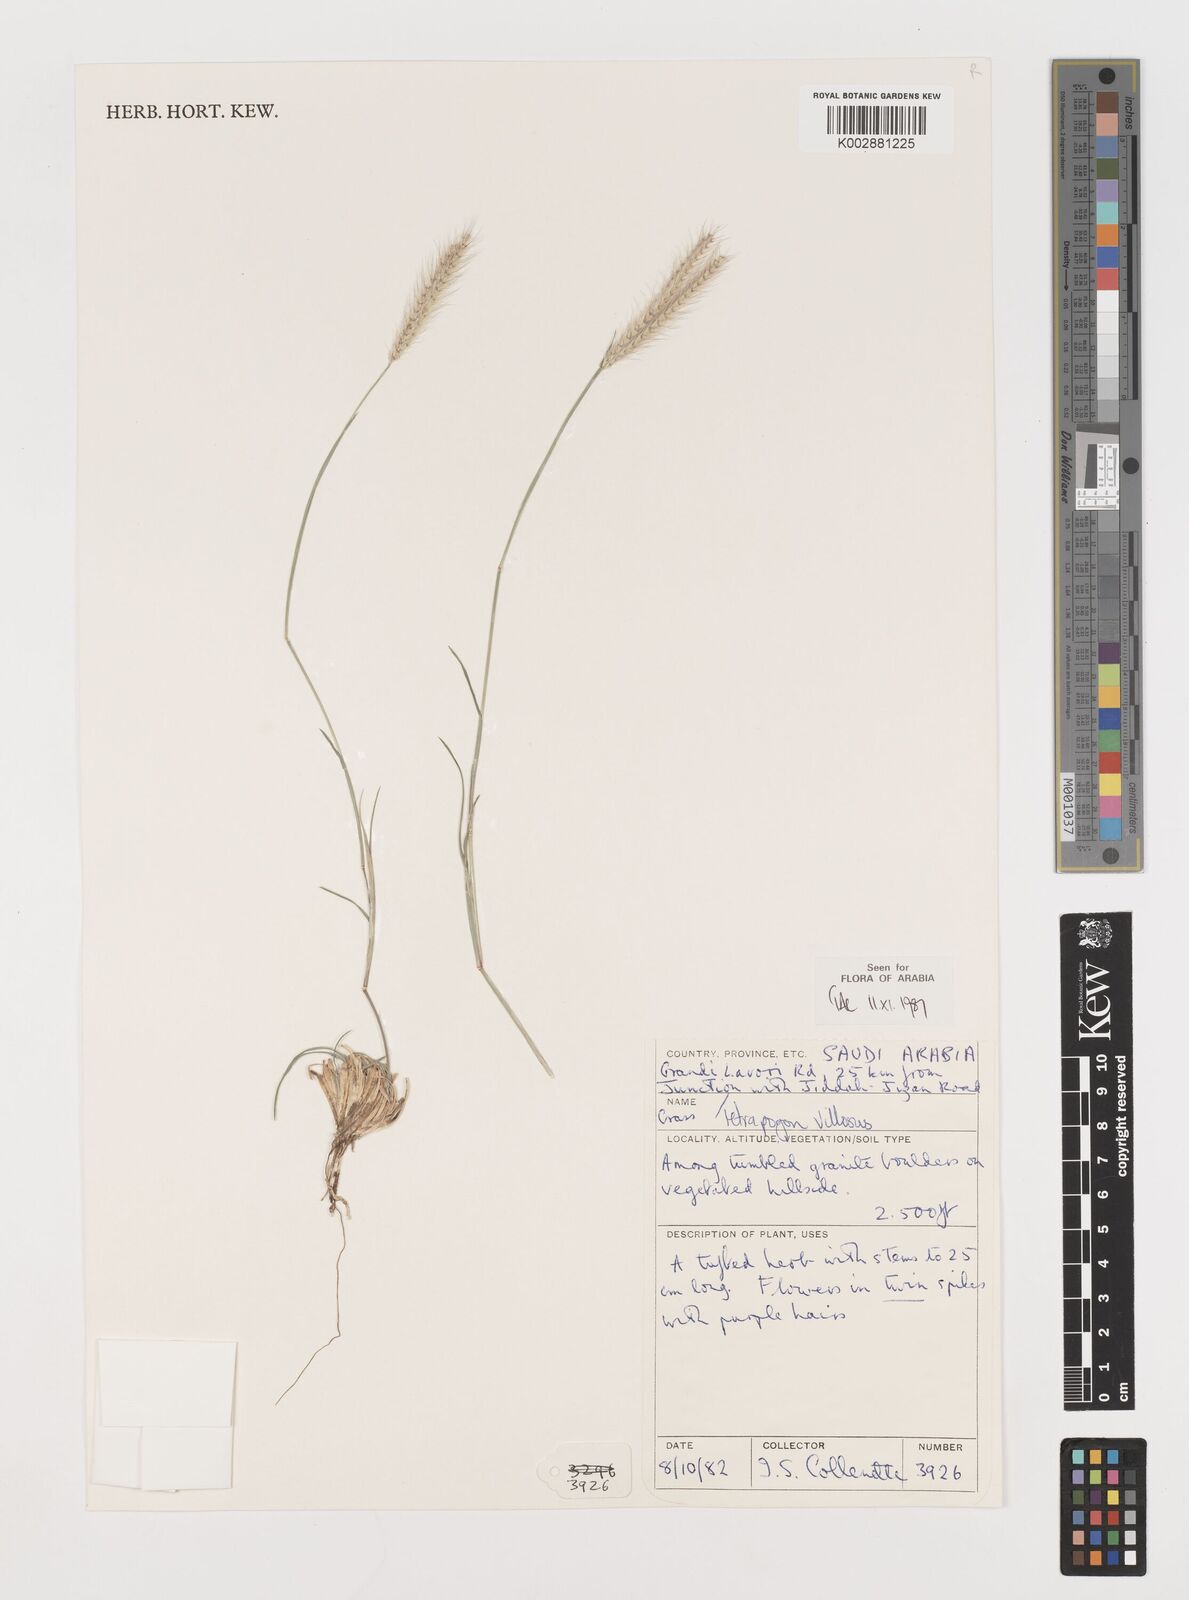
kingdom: Plantae
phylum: Tracheophyta
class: Liliopsida
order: Poales
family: Poaceae
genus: Tetrapogon
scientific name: Tetrapogon villosus
